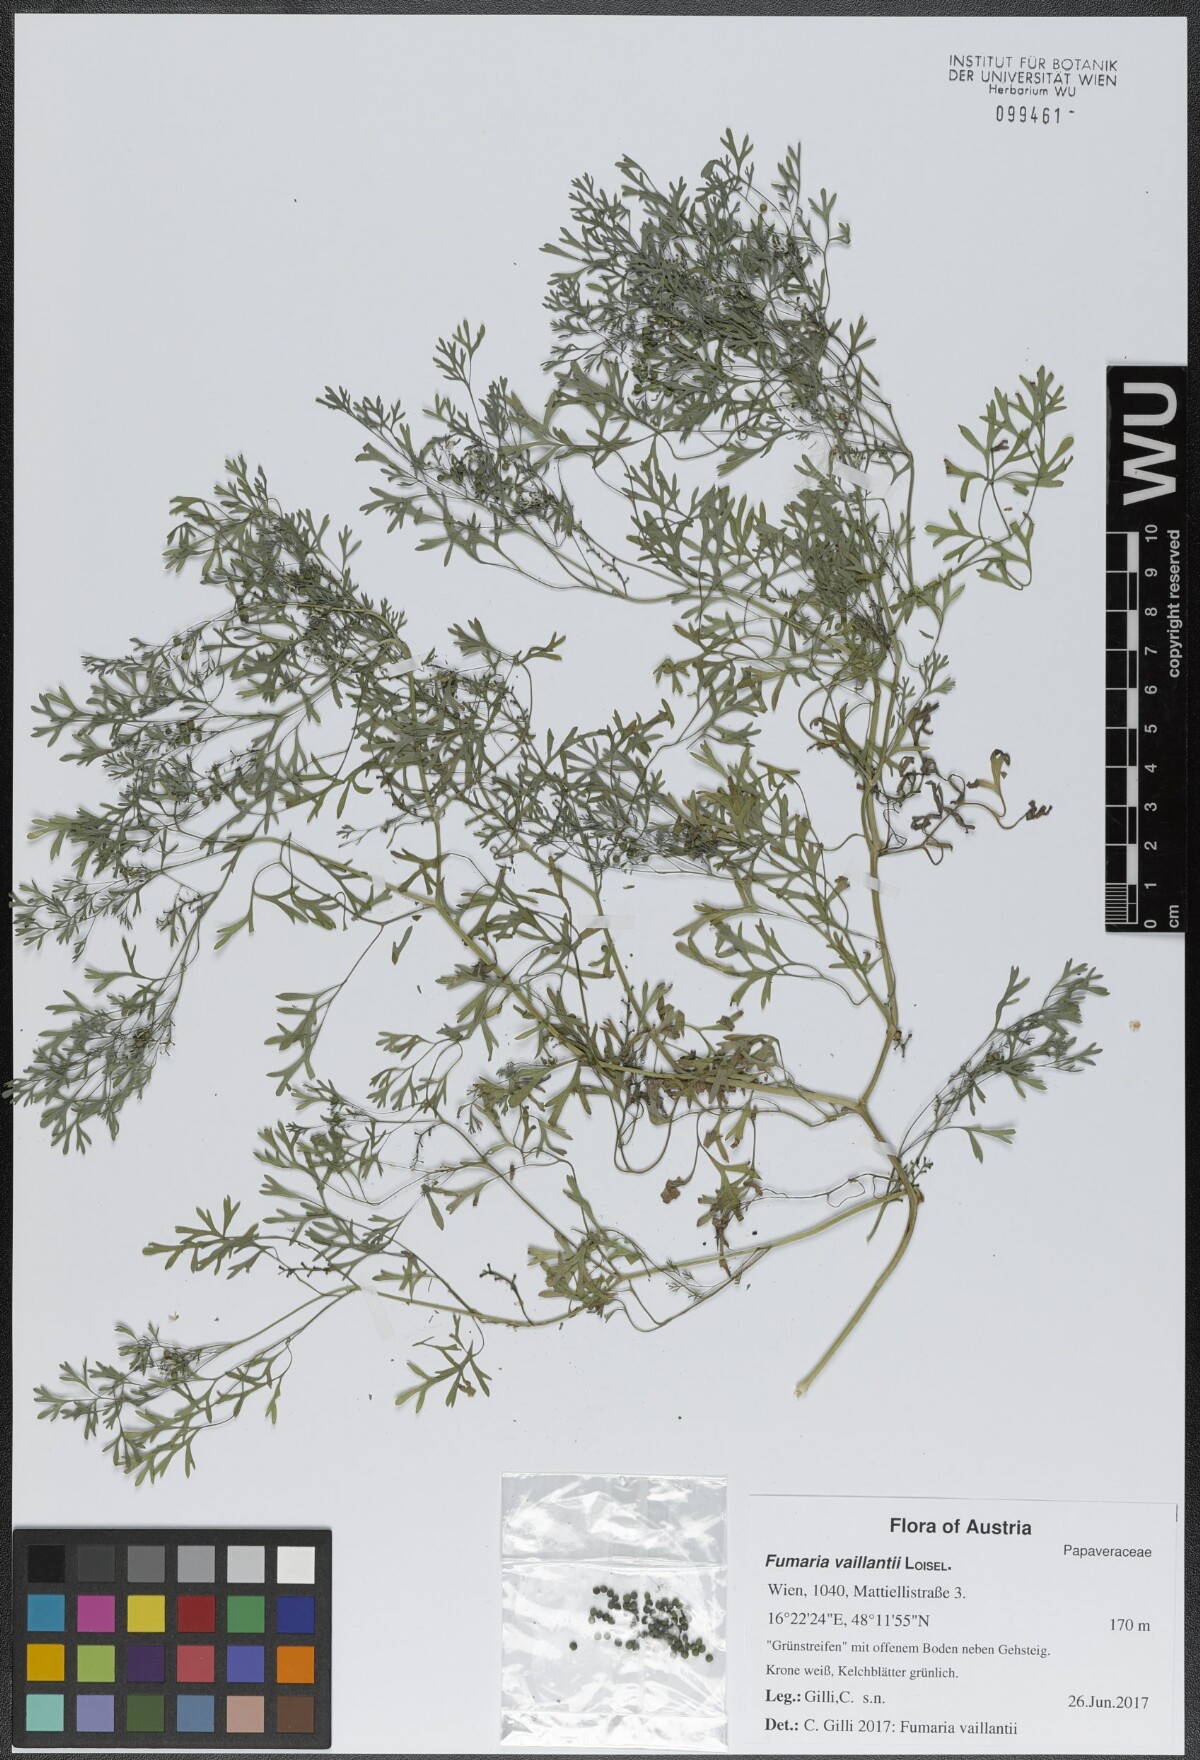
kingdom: Plantae
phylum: Tracheophyta
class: Magnoliopsida
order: Ranunculales
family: Papaveraceae
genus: Fumaria
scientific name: Fumaria vaillantii
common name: Few-flowered fumitory
